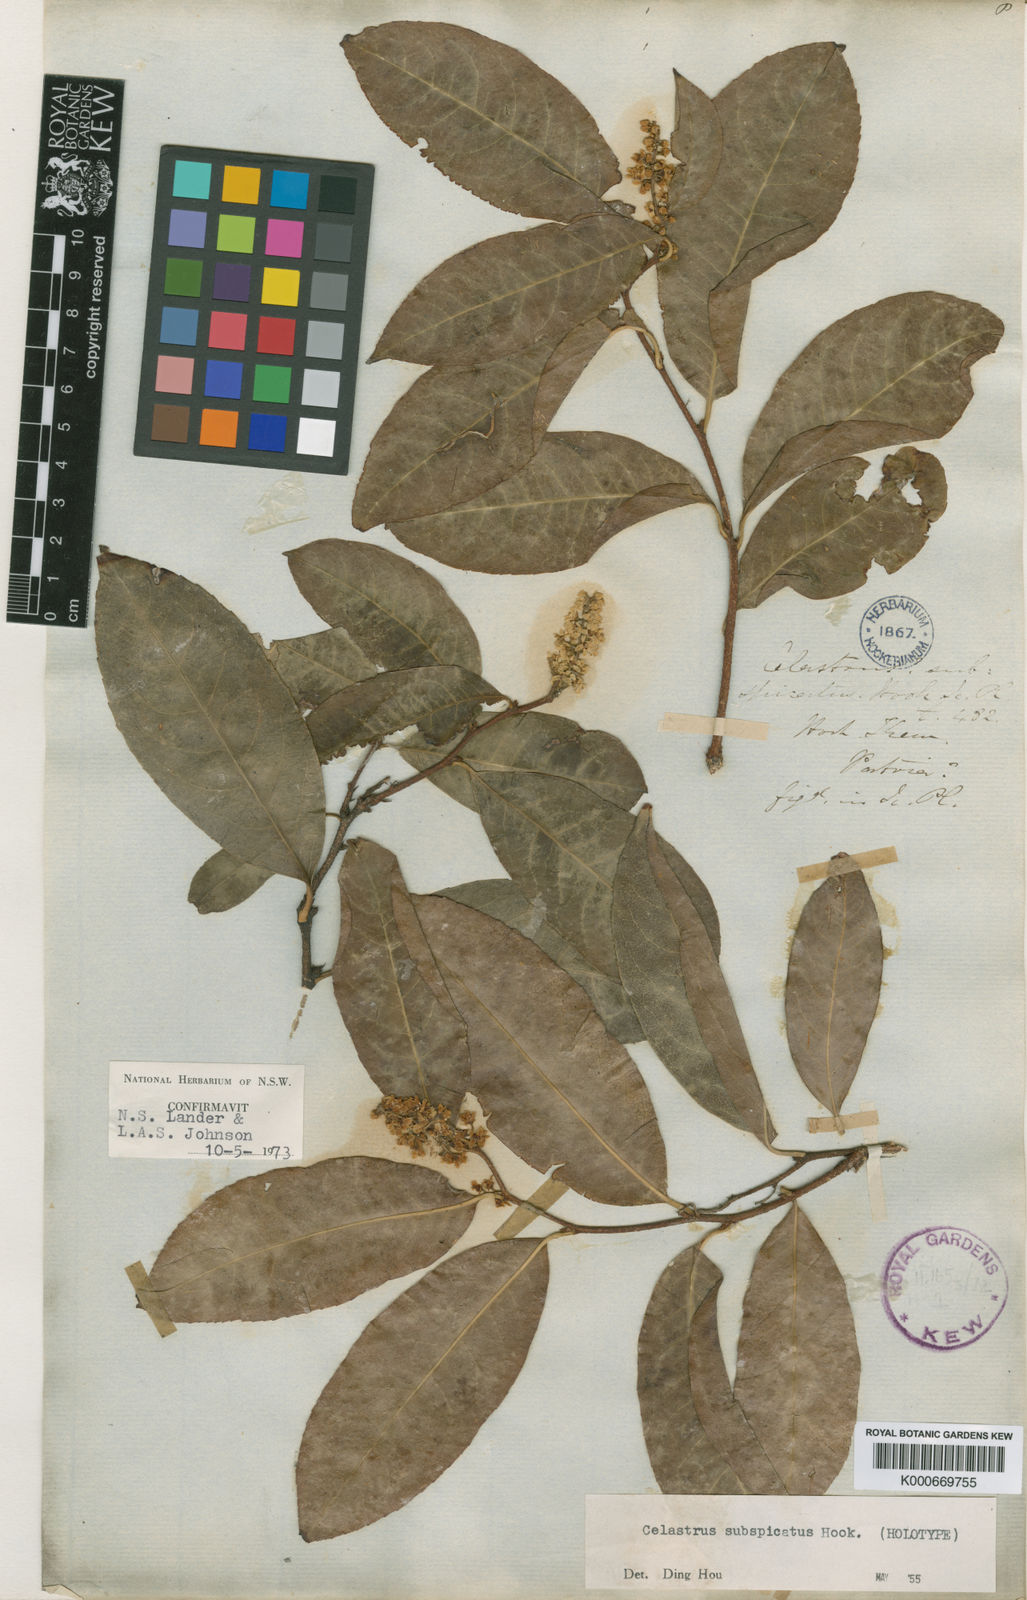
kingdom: Plantae
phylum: Tracheophyta
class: Magnoliopsida
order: Celastrales
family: Celastraceae
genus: Celastrus
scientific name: Celastrus subspicatus
